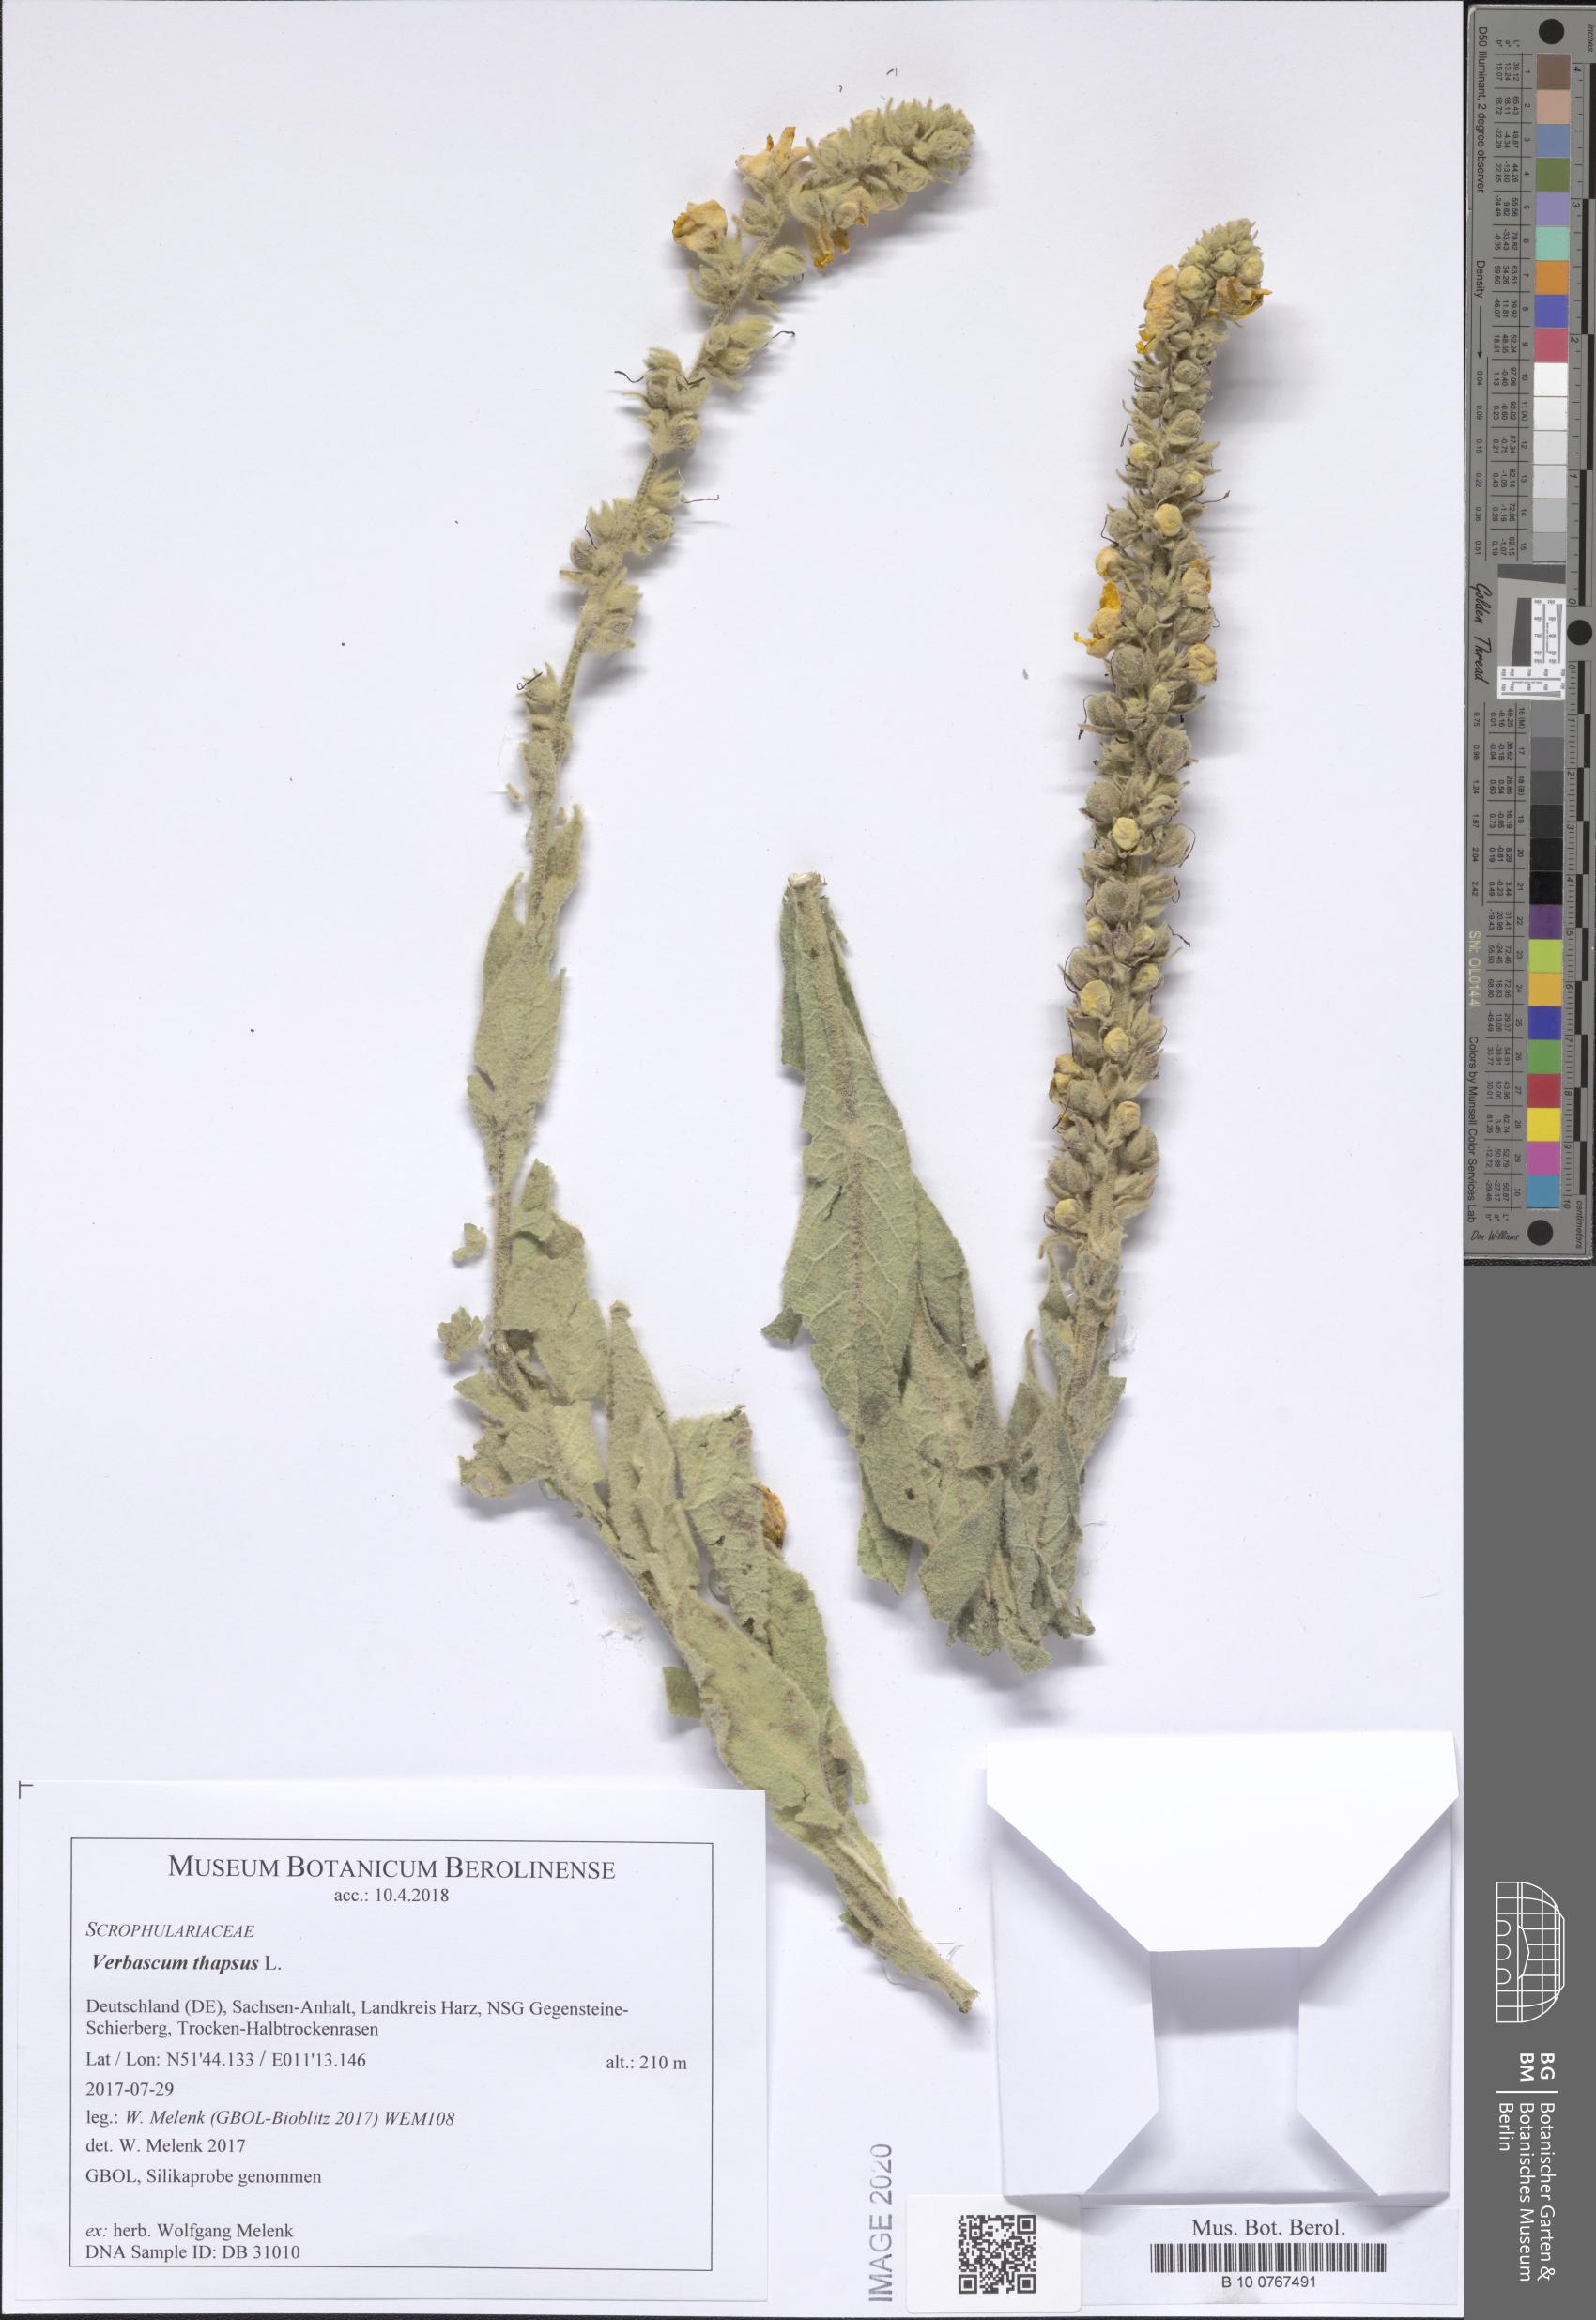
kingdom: Plantae
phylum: Tracheophyta
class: Magnoliopsida
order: Lamiales
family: Scrophulariaceae
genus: Verbascum
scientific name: Verbascum thapsus
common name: Common mullein
